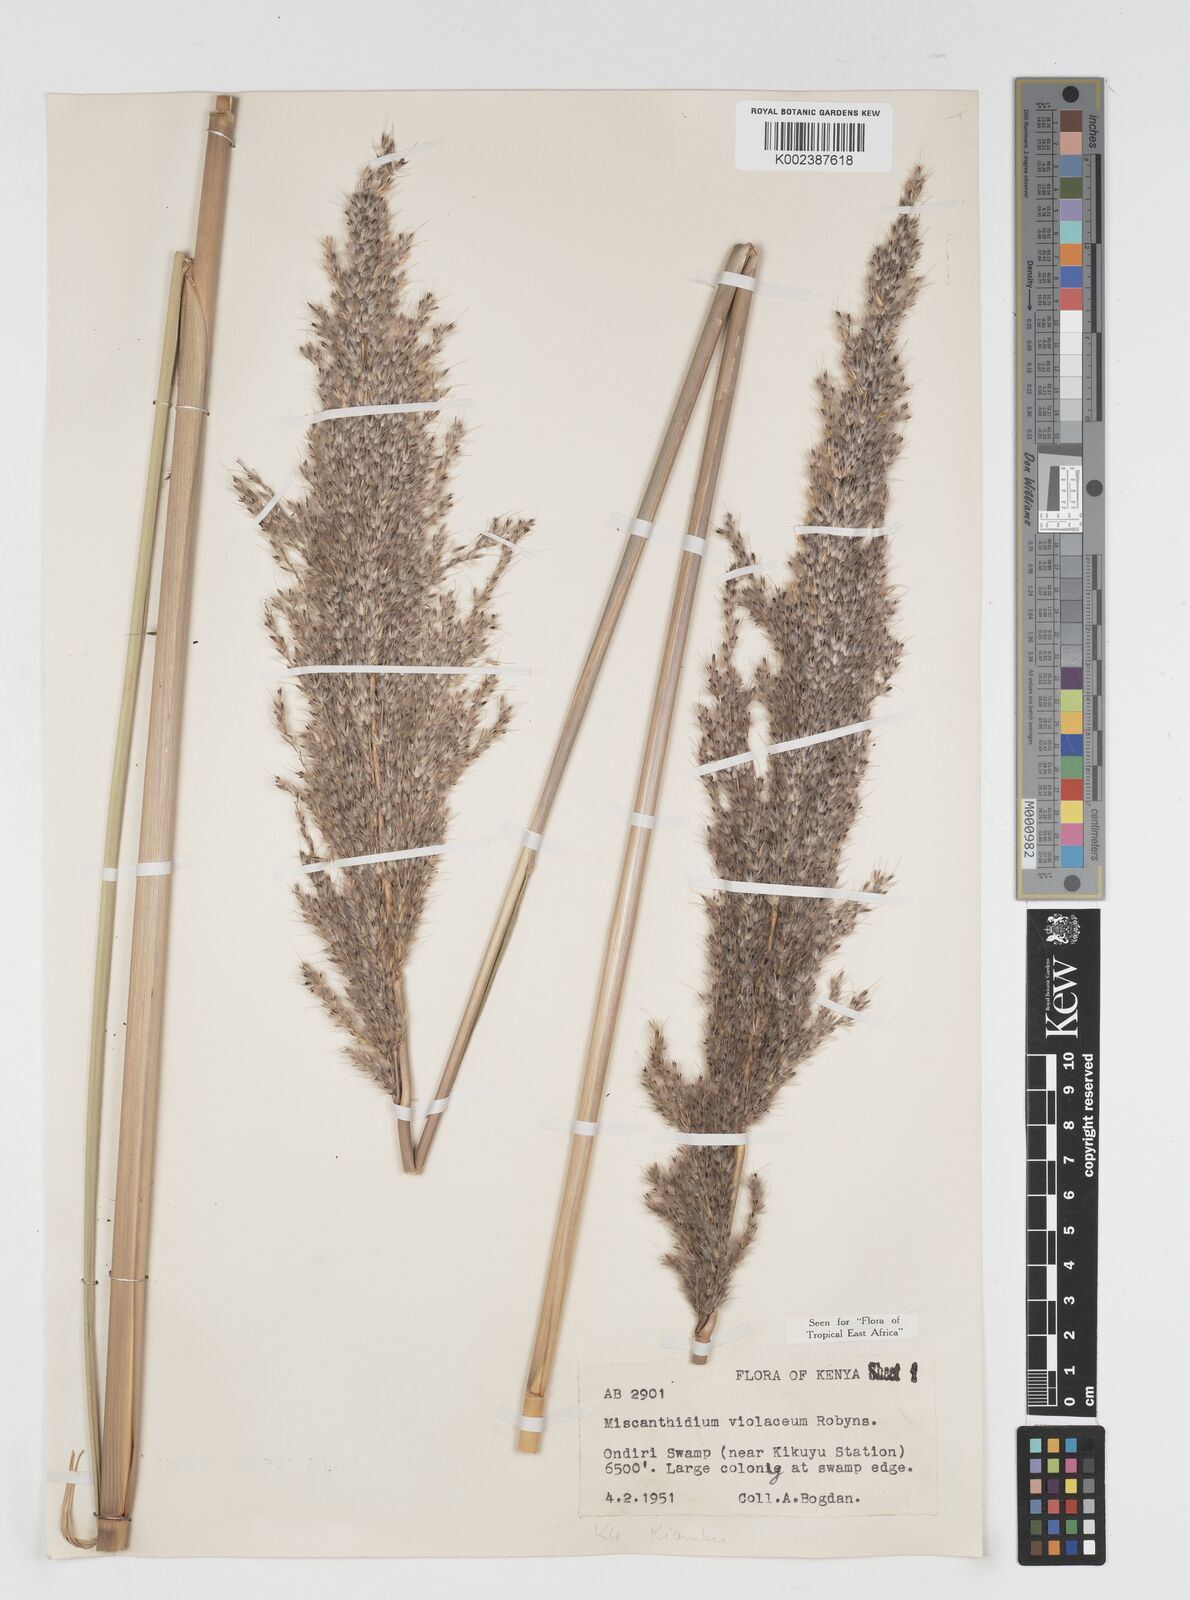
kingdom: Plantae
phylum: Tracheophyta
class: Liliopsida
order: Poales
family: Poaceae
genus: Miscanthidium
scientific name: Miscanthidium violaceum
